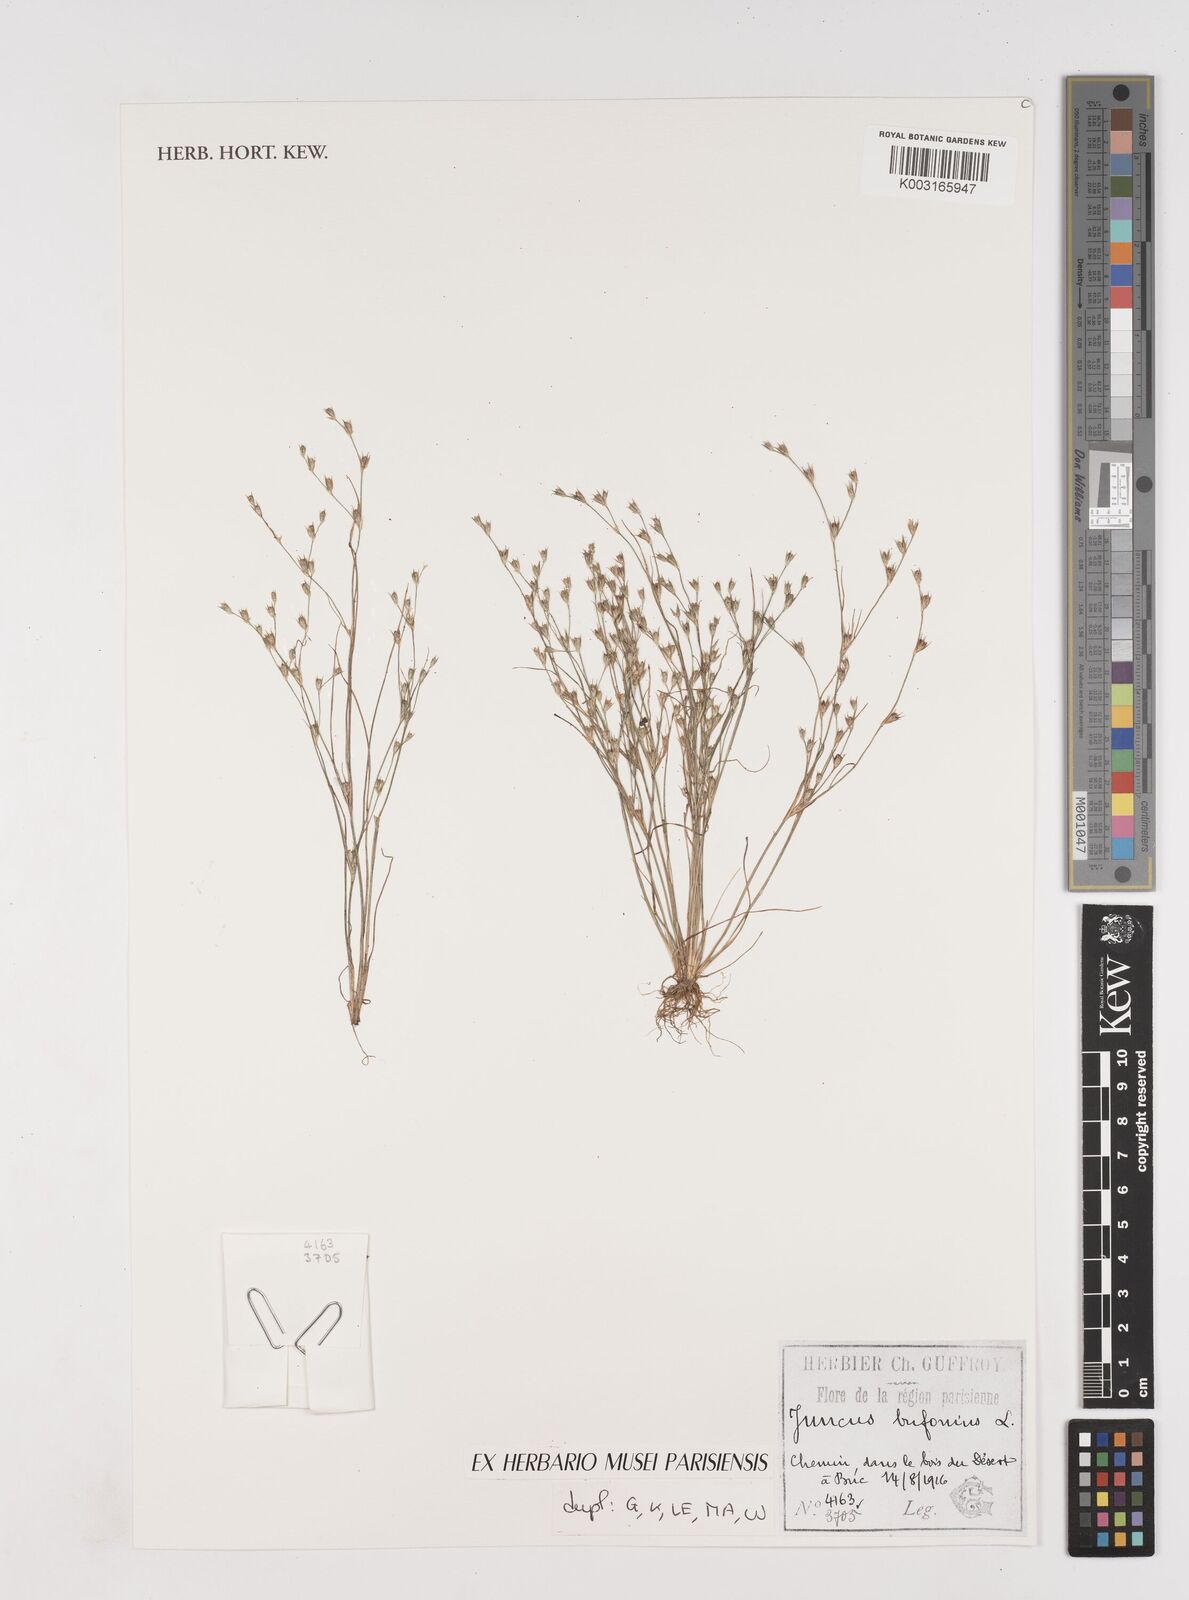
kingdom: Plantae
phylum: Tracheophyta
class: Liliopsida
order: Poales
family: Juncaceae
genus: Juncus
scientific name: Juncus bufonius
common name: Toad rush
